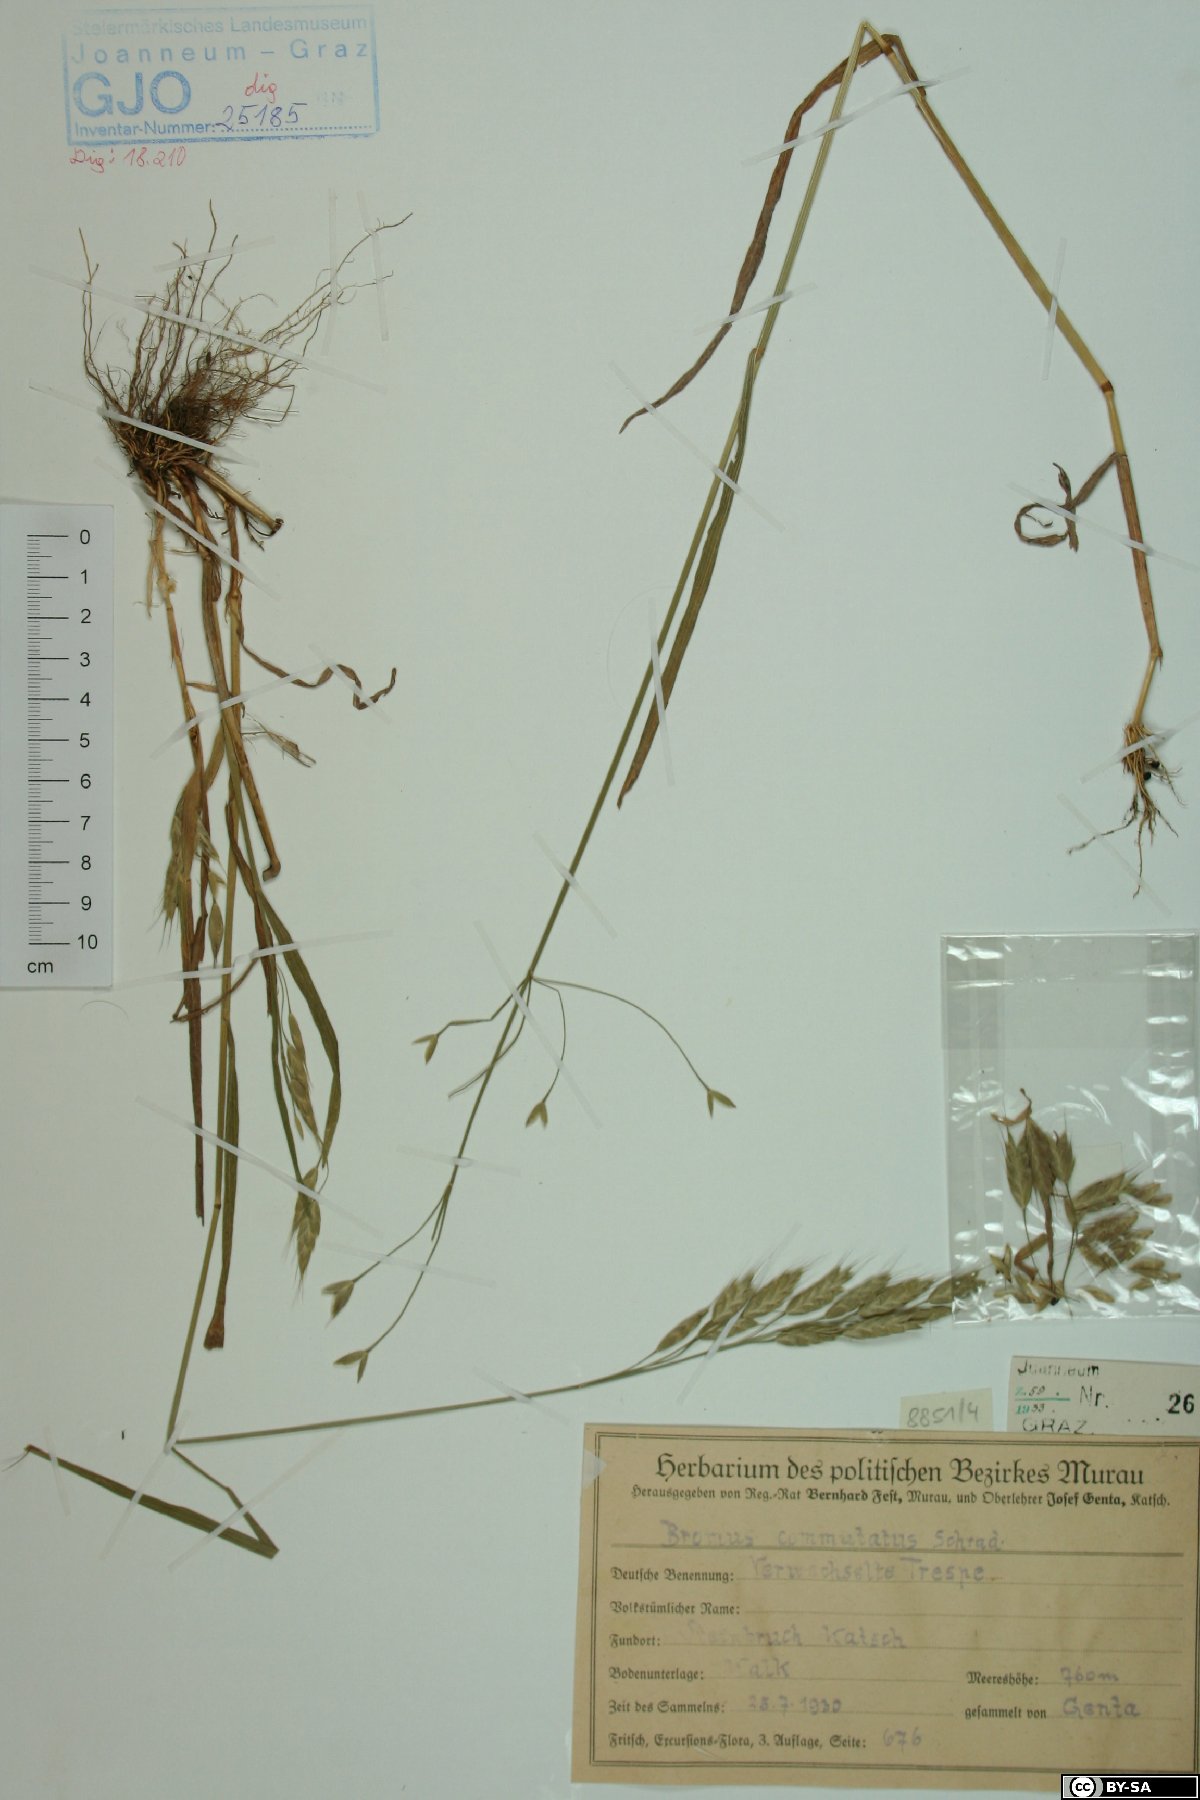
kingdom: Plantae
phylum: Tracheophyta
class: Liliopsida
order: Poales
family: Poaceae
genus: Bromus
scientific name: Bromus commutatus
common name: Meadow brome
